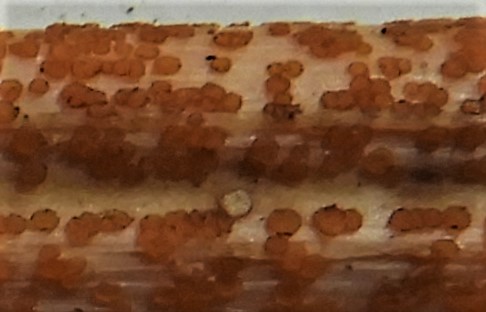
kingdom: Fungi
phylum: Ascomycota
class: Leotiomycetes
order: Helotiales
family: Calloriaceae
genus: Calloria
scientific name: Calloria urticae
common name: nælde-orangeskive
